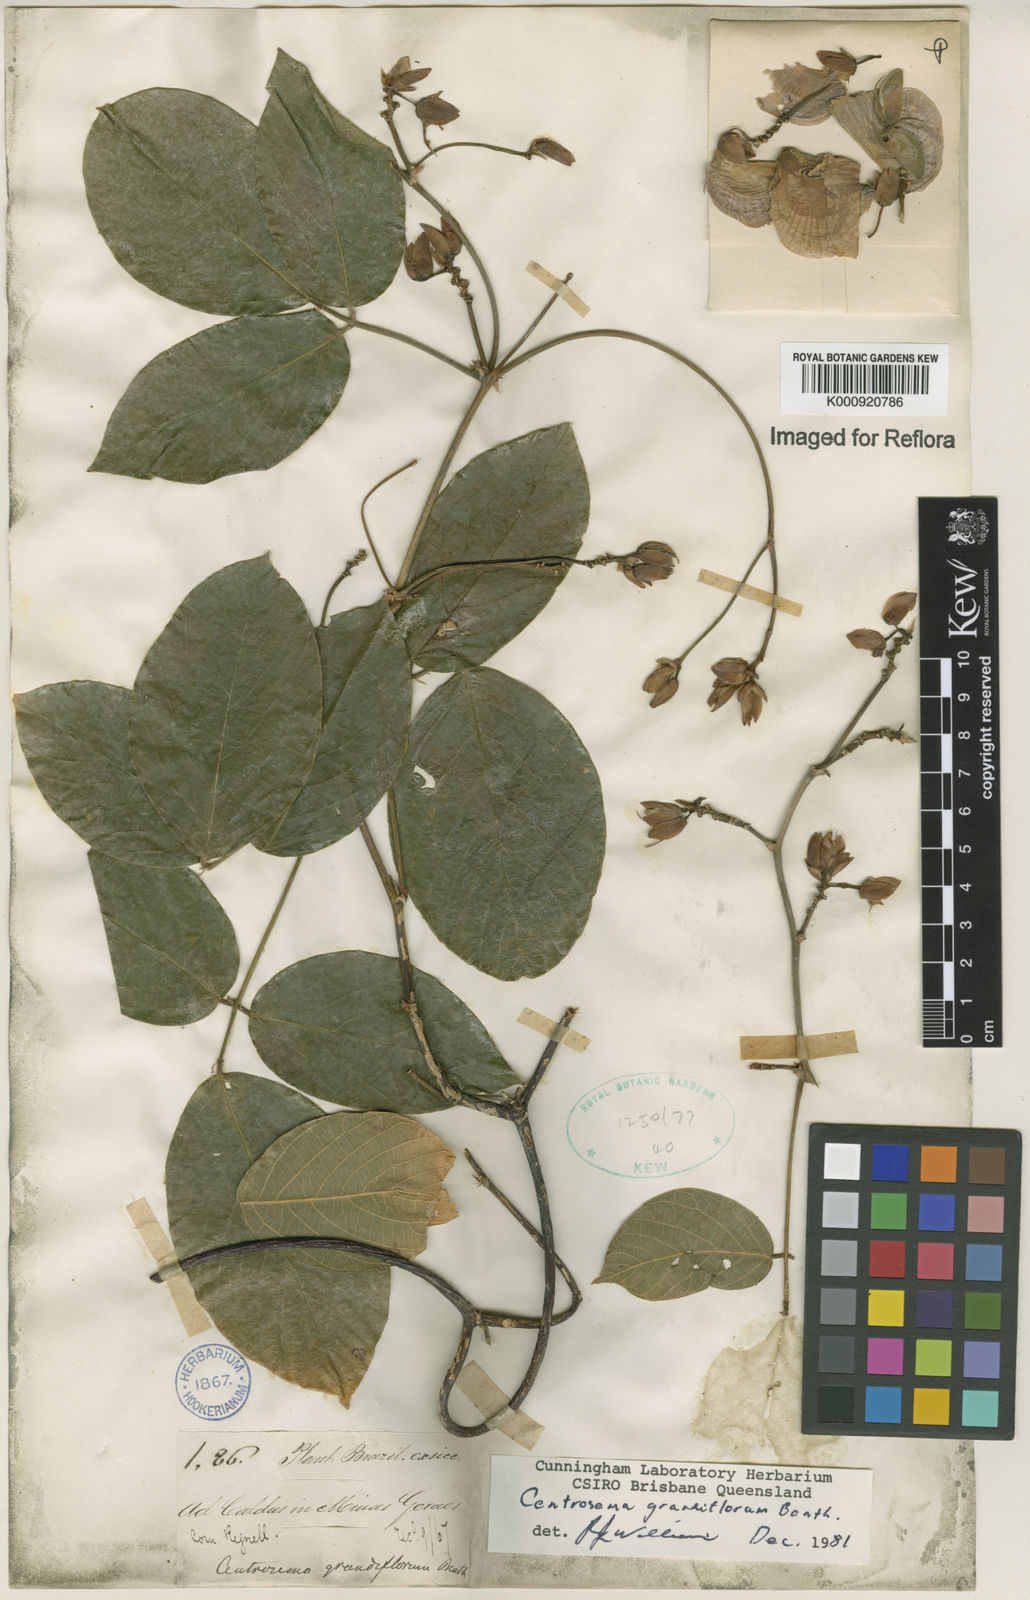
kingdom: Plantae
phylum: Tracheophyta
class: Magnoliopsida
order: Fabales
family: Fabaceae
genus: Centrosema
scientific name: Centrosema grandiflorum
